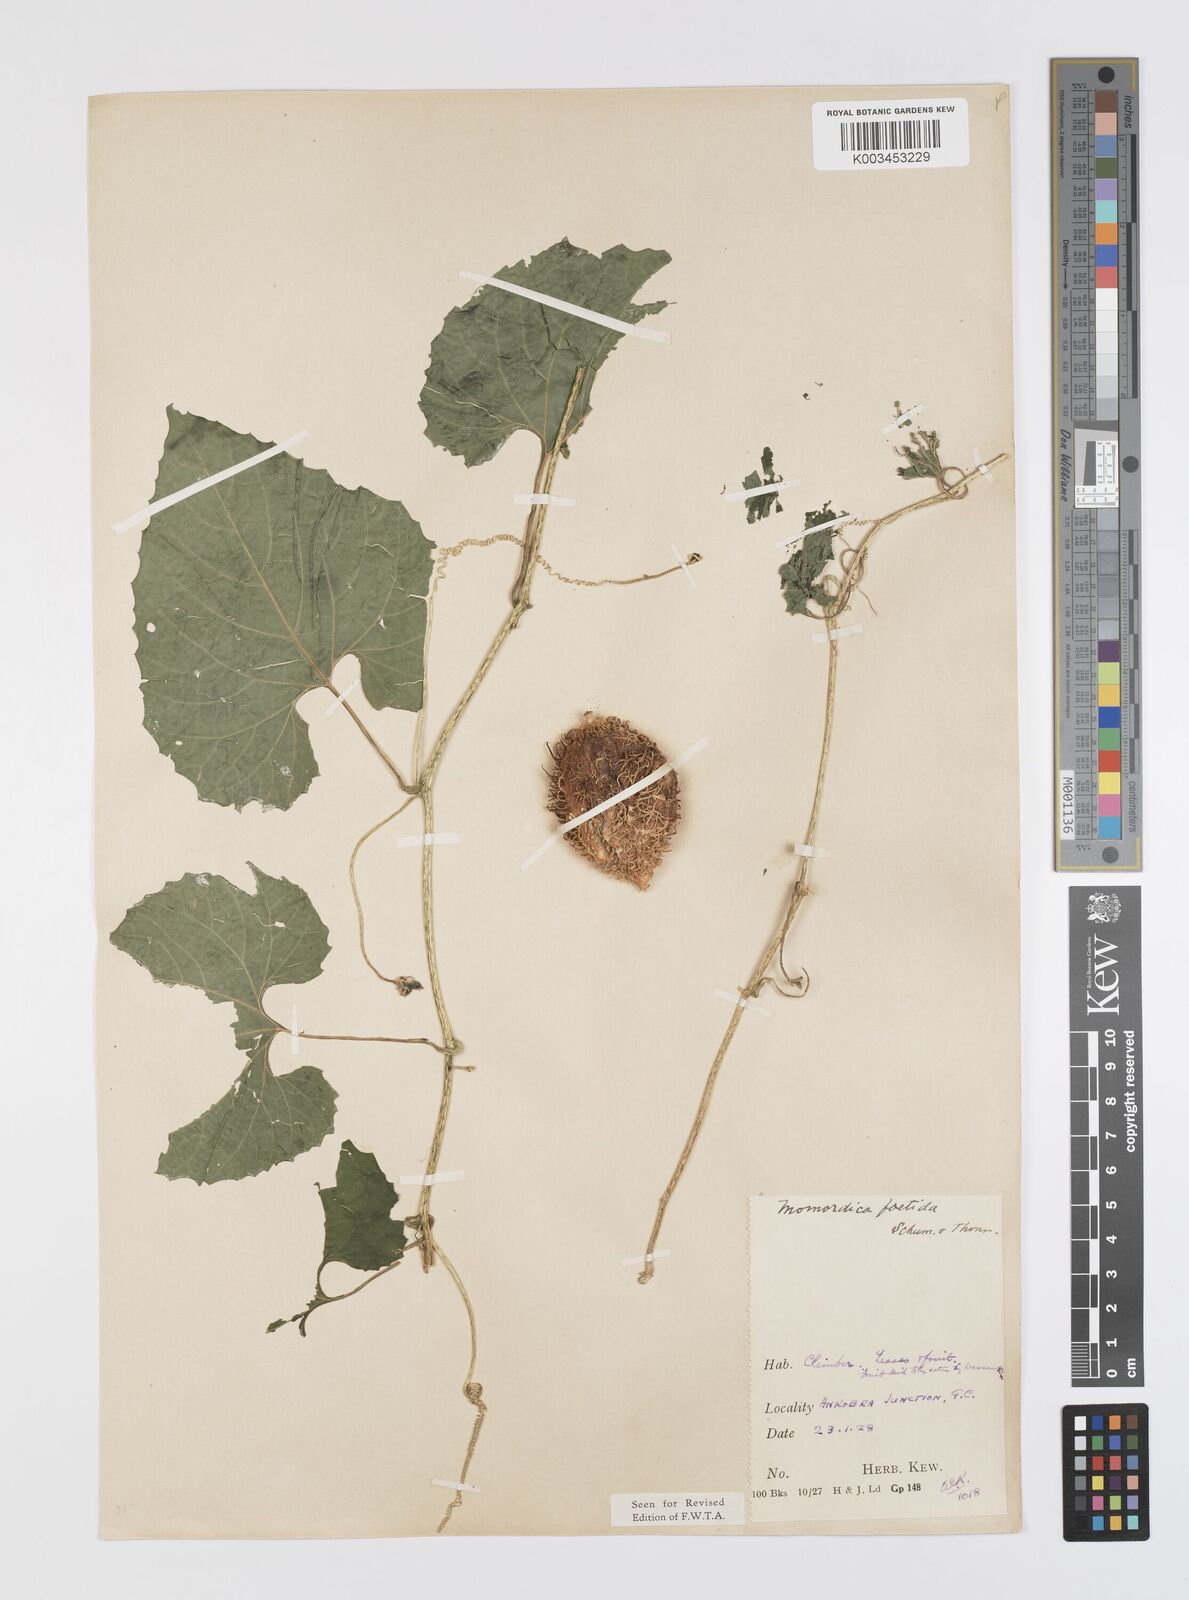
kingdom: Plantae
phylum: Tracheophyta
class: Magnoliopsida
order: Cucurbitales
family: Cucurbitaceae
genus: Momordica
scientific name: Momordica foetida
